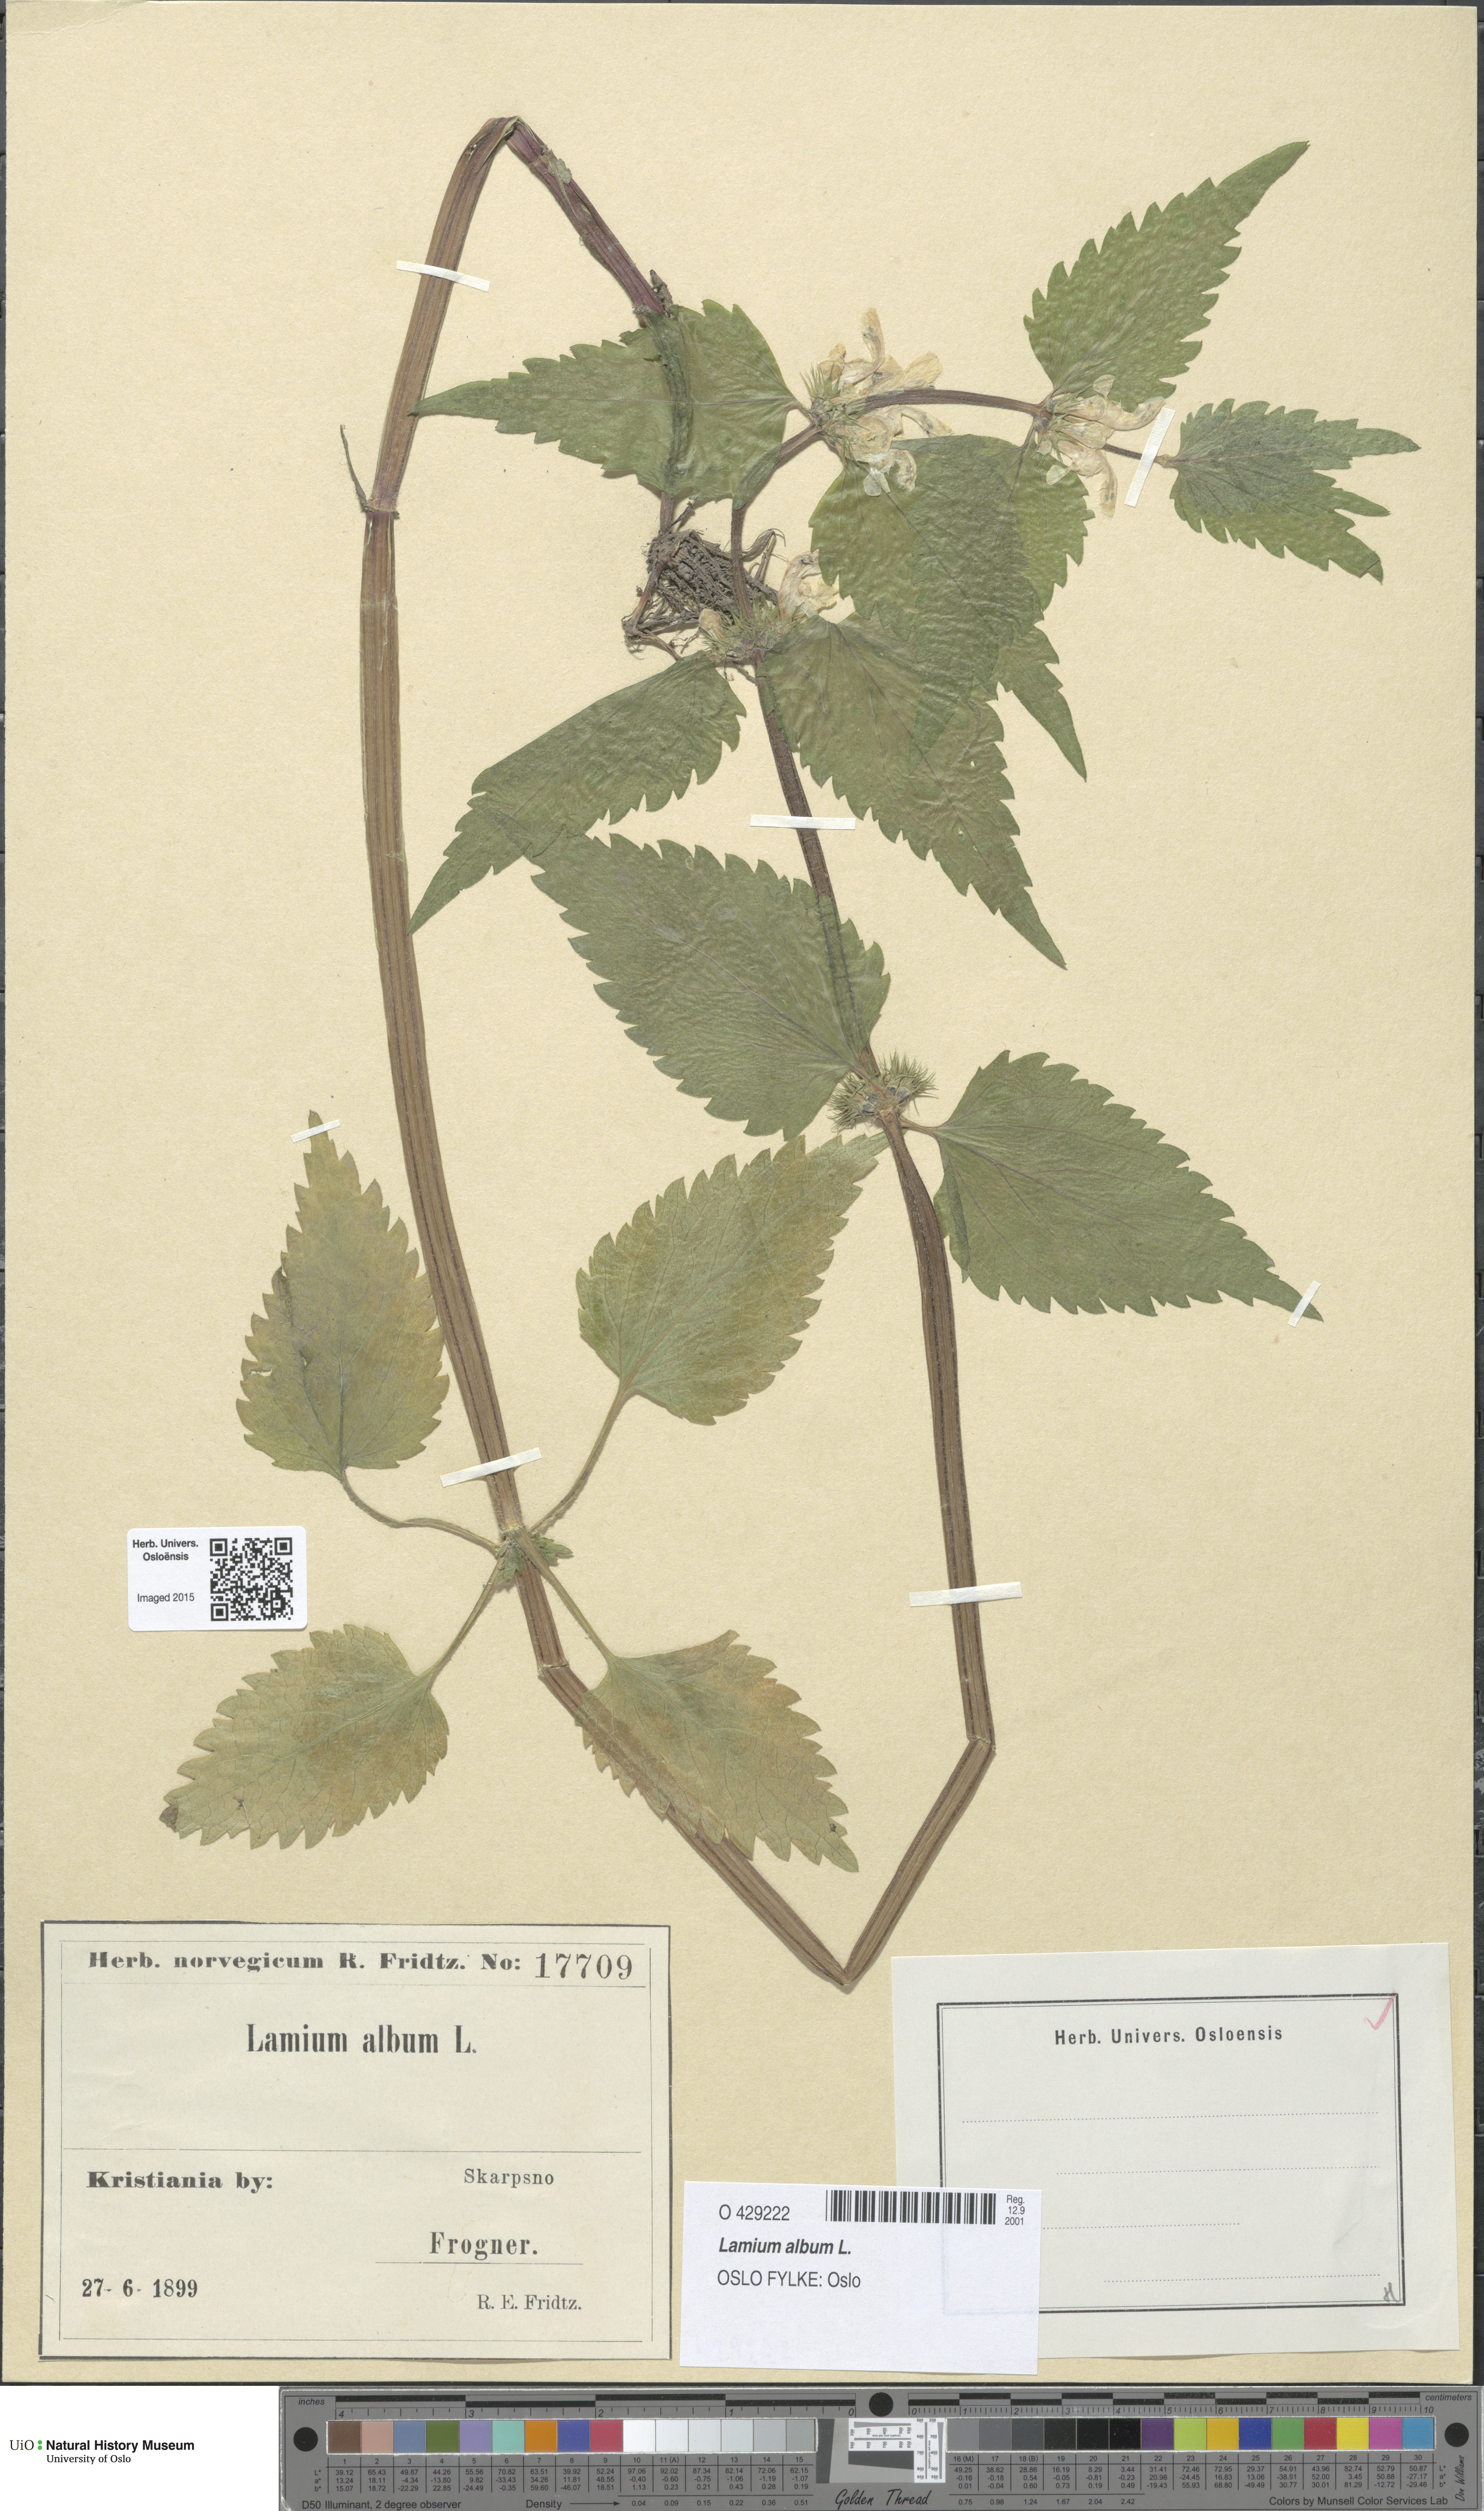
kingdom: Plantae
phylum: Tracheophyta
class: Magnoliopsida
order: Lamiales
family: Lamiaceae
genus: Lamium
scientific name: Lamium album
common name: White dead-nettle
